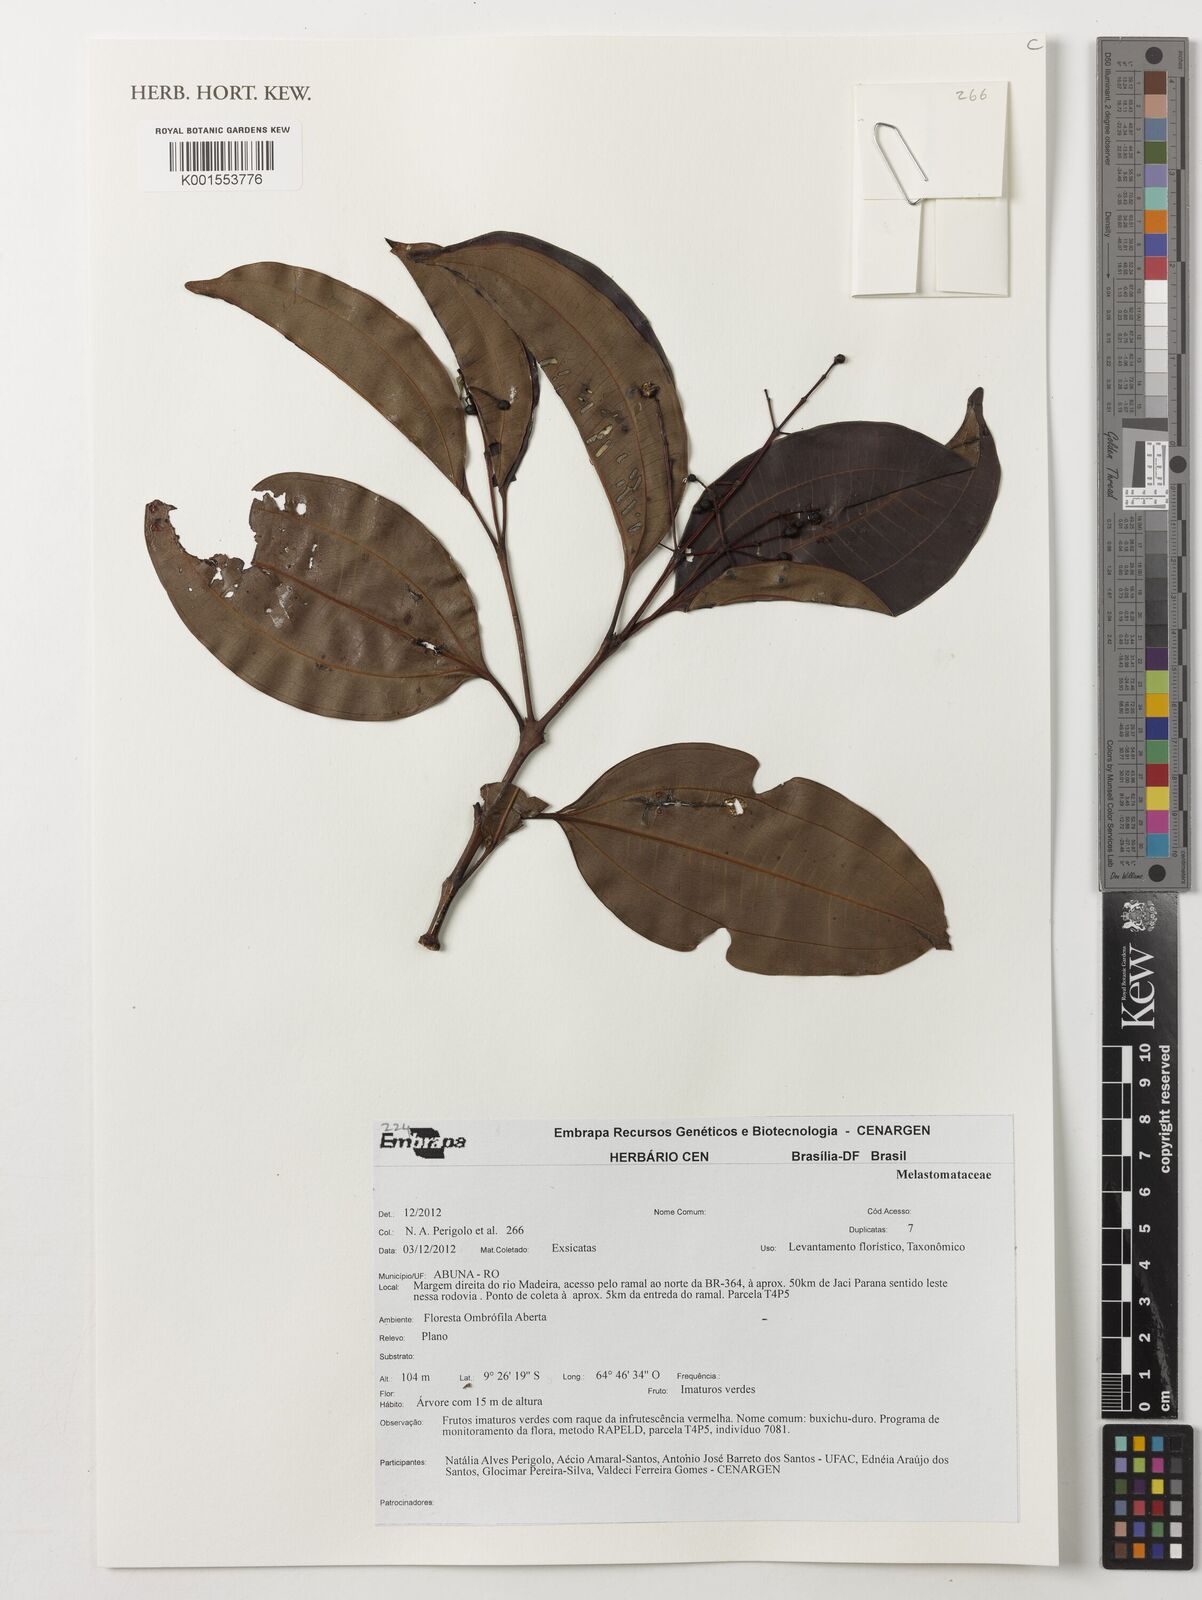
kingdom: Plantae
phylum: Tracheophyta
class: Magnoliopsida
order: Myrtales
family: Melastomataceae
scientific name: Melastomataceae
